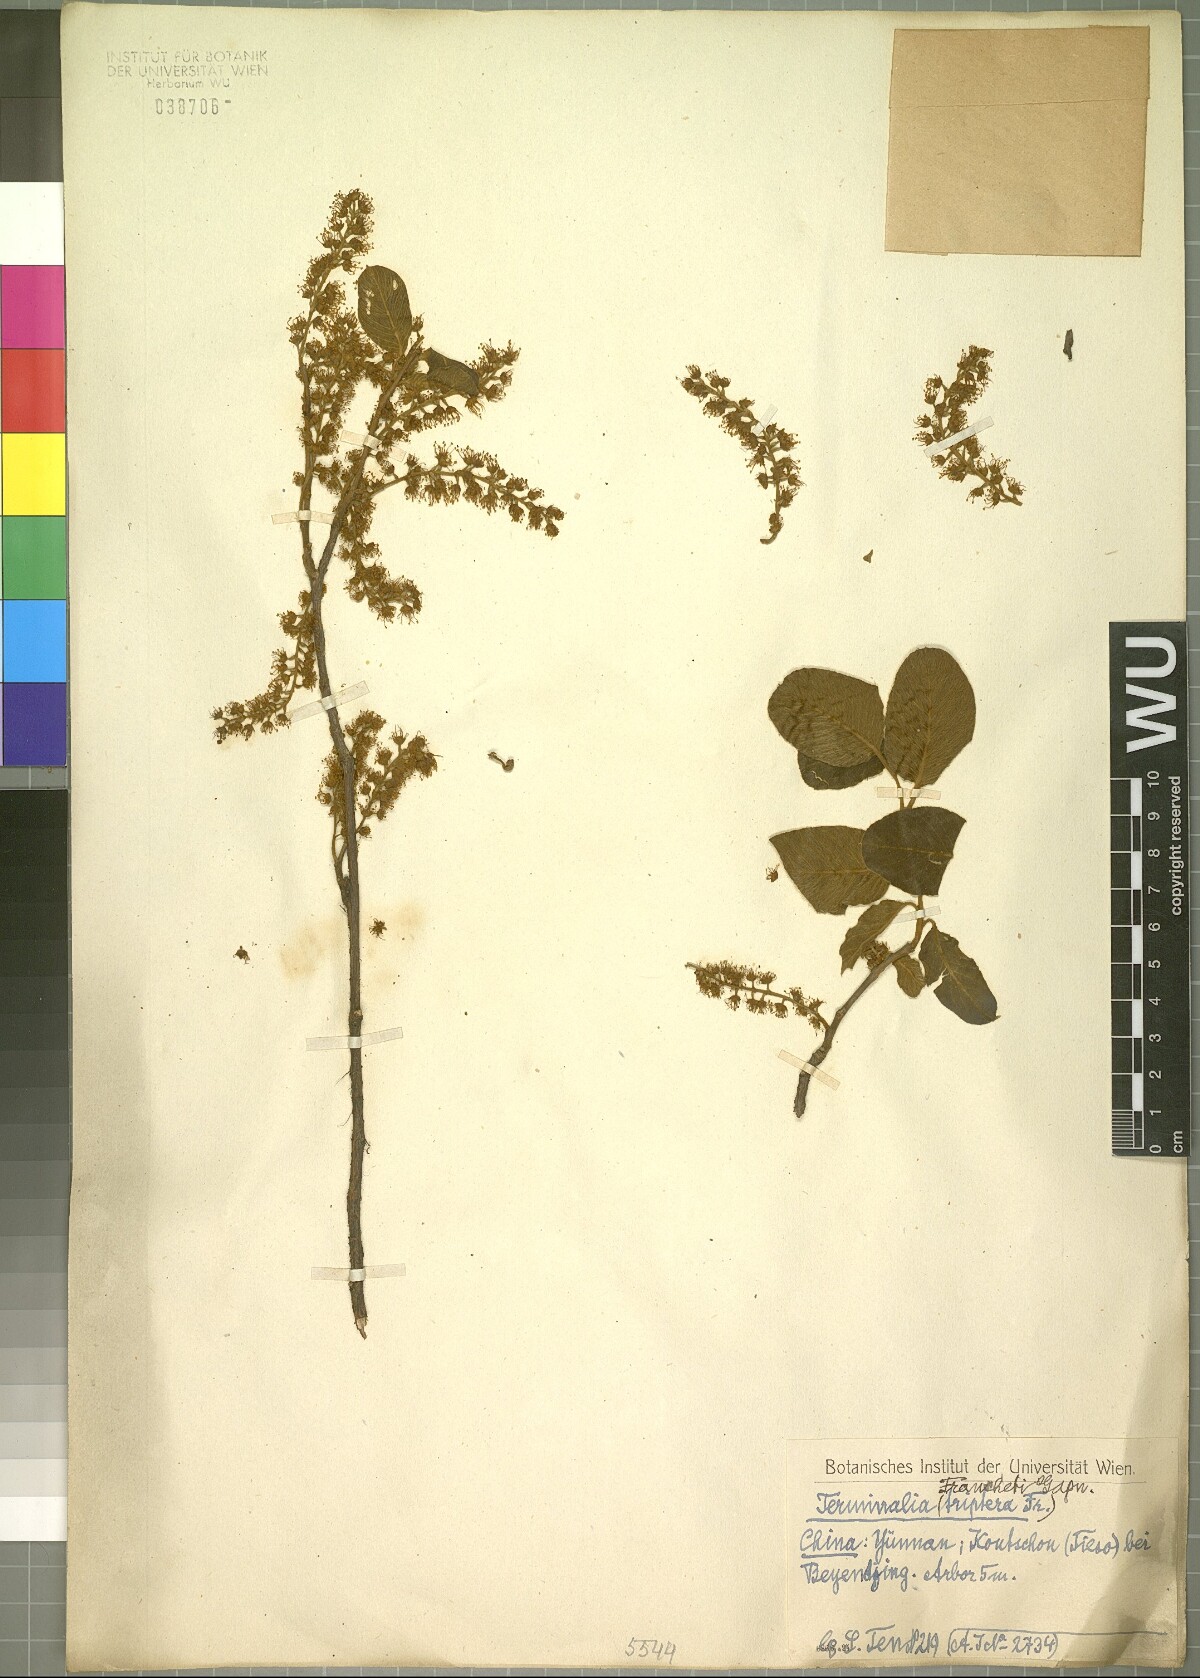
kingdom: Plantae
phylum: Tracheophyta
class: Magnoliopsida
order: Myrtales
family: Combretaceae
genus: Terminalia
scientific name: Terminalia franchetii
